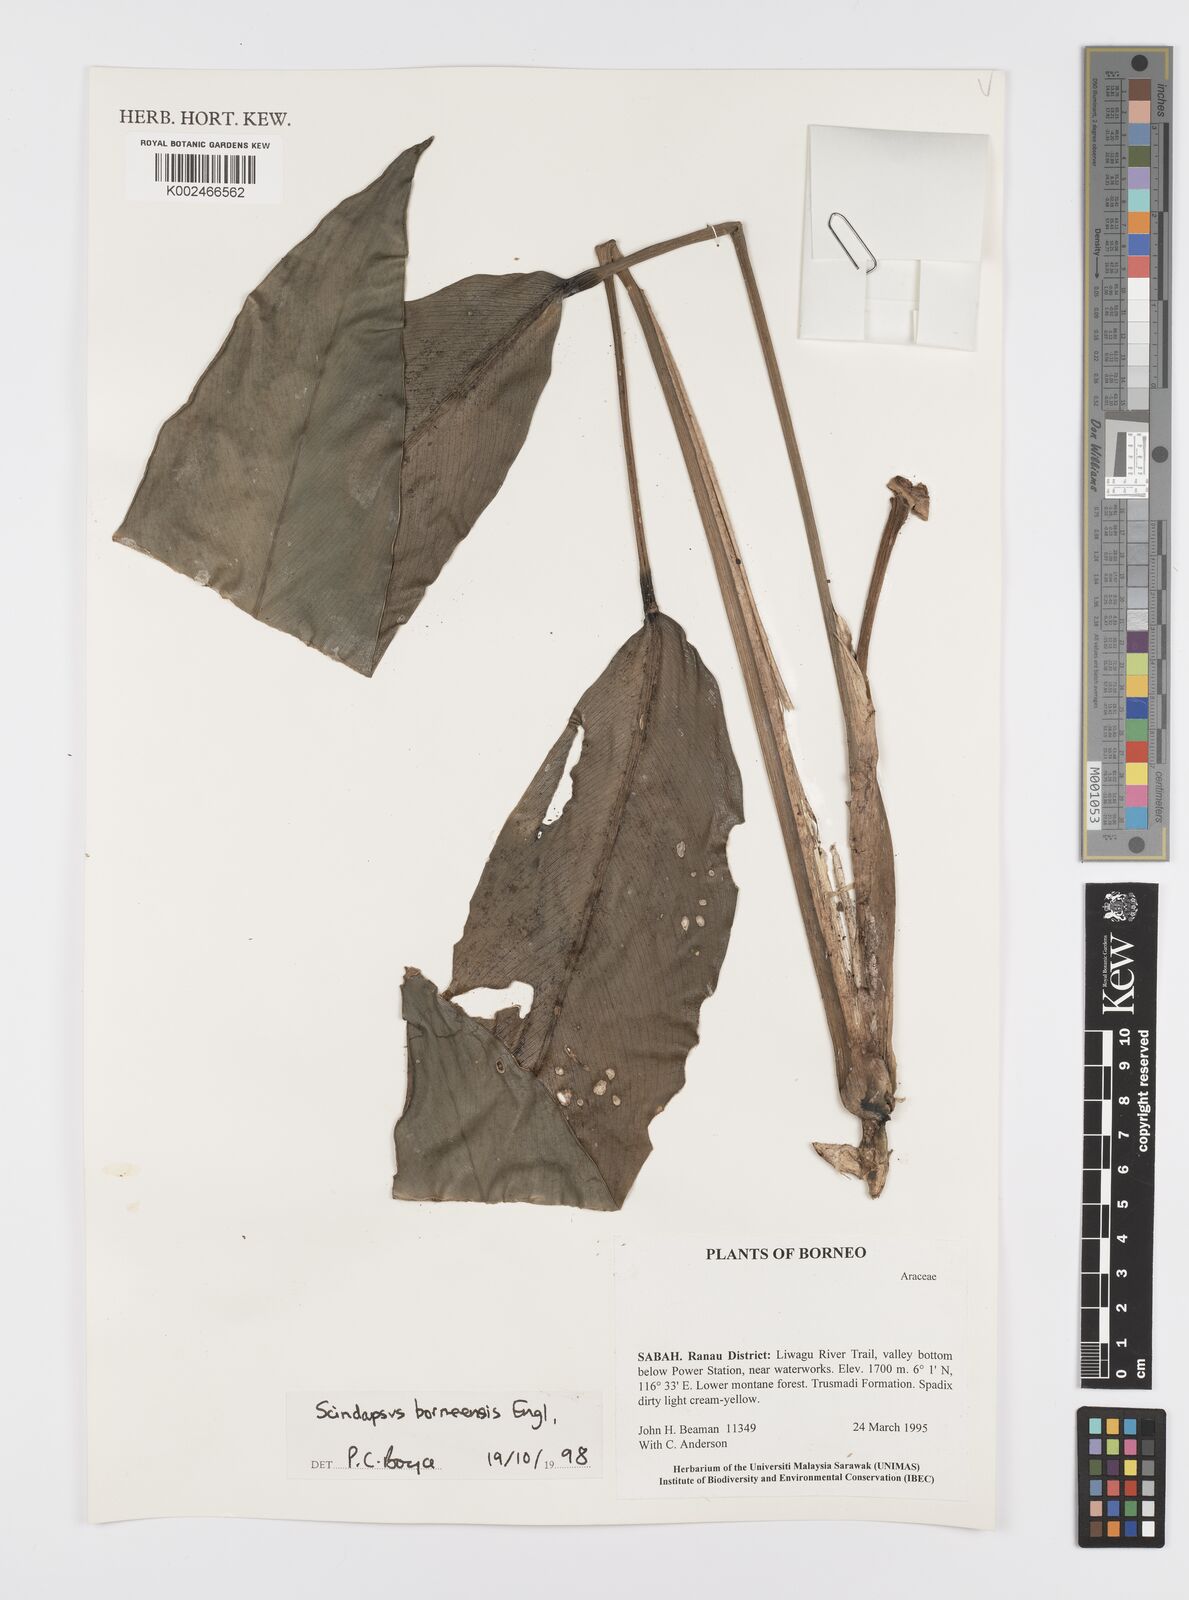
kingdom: Plantae
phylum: Tracheophyta
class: Liliopsida
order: Alismatales
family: Araceae
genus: Scindapsus
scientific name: Scindapsus coriaceus
